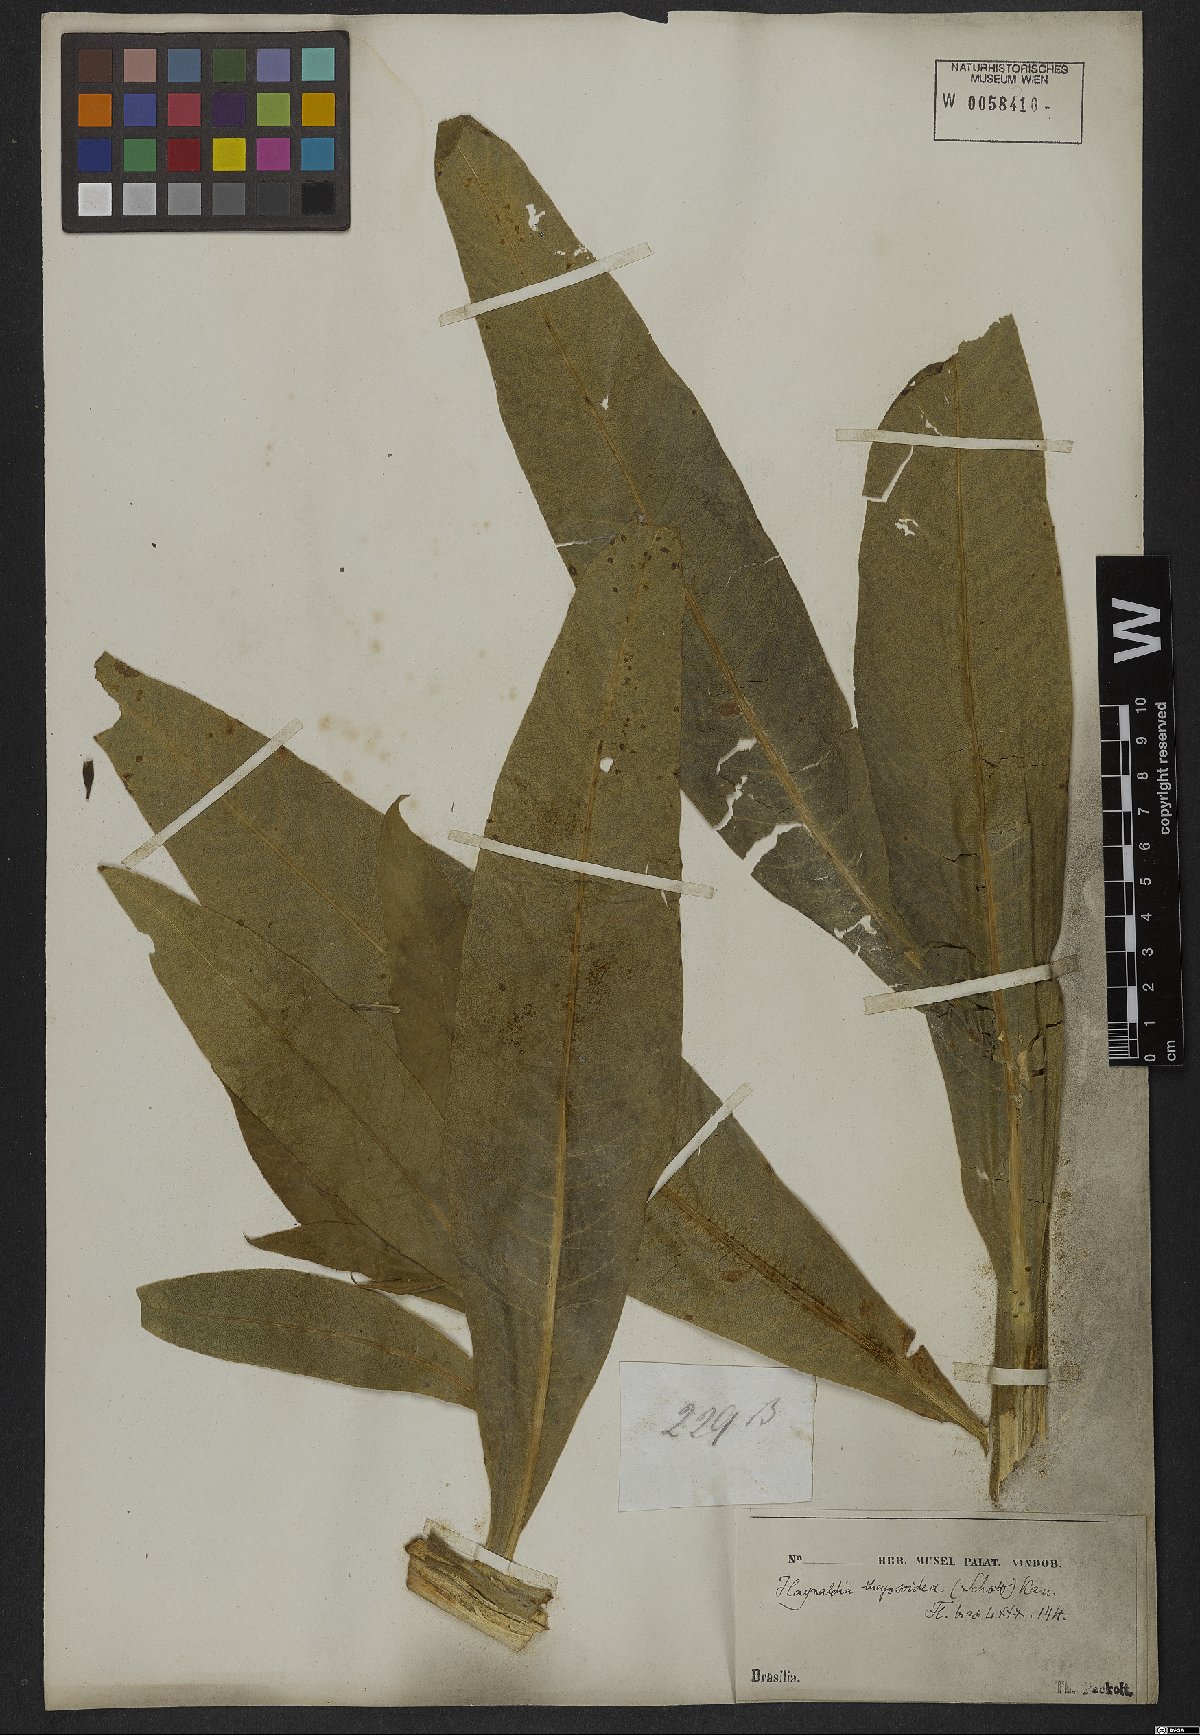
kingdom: Plantae
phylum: Tracheophyta
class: Magnoliopsida
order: Asterales
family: Campanulaceae
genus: Lobelia
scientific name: Lobelia thapsoidea
